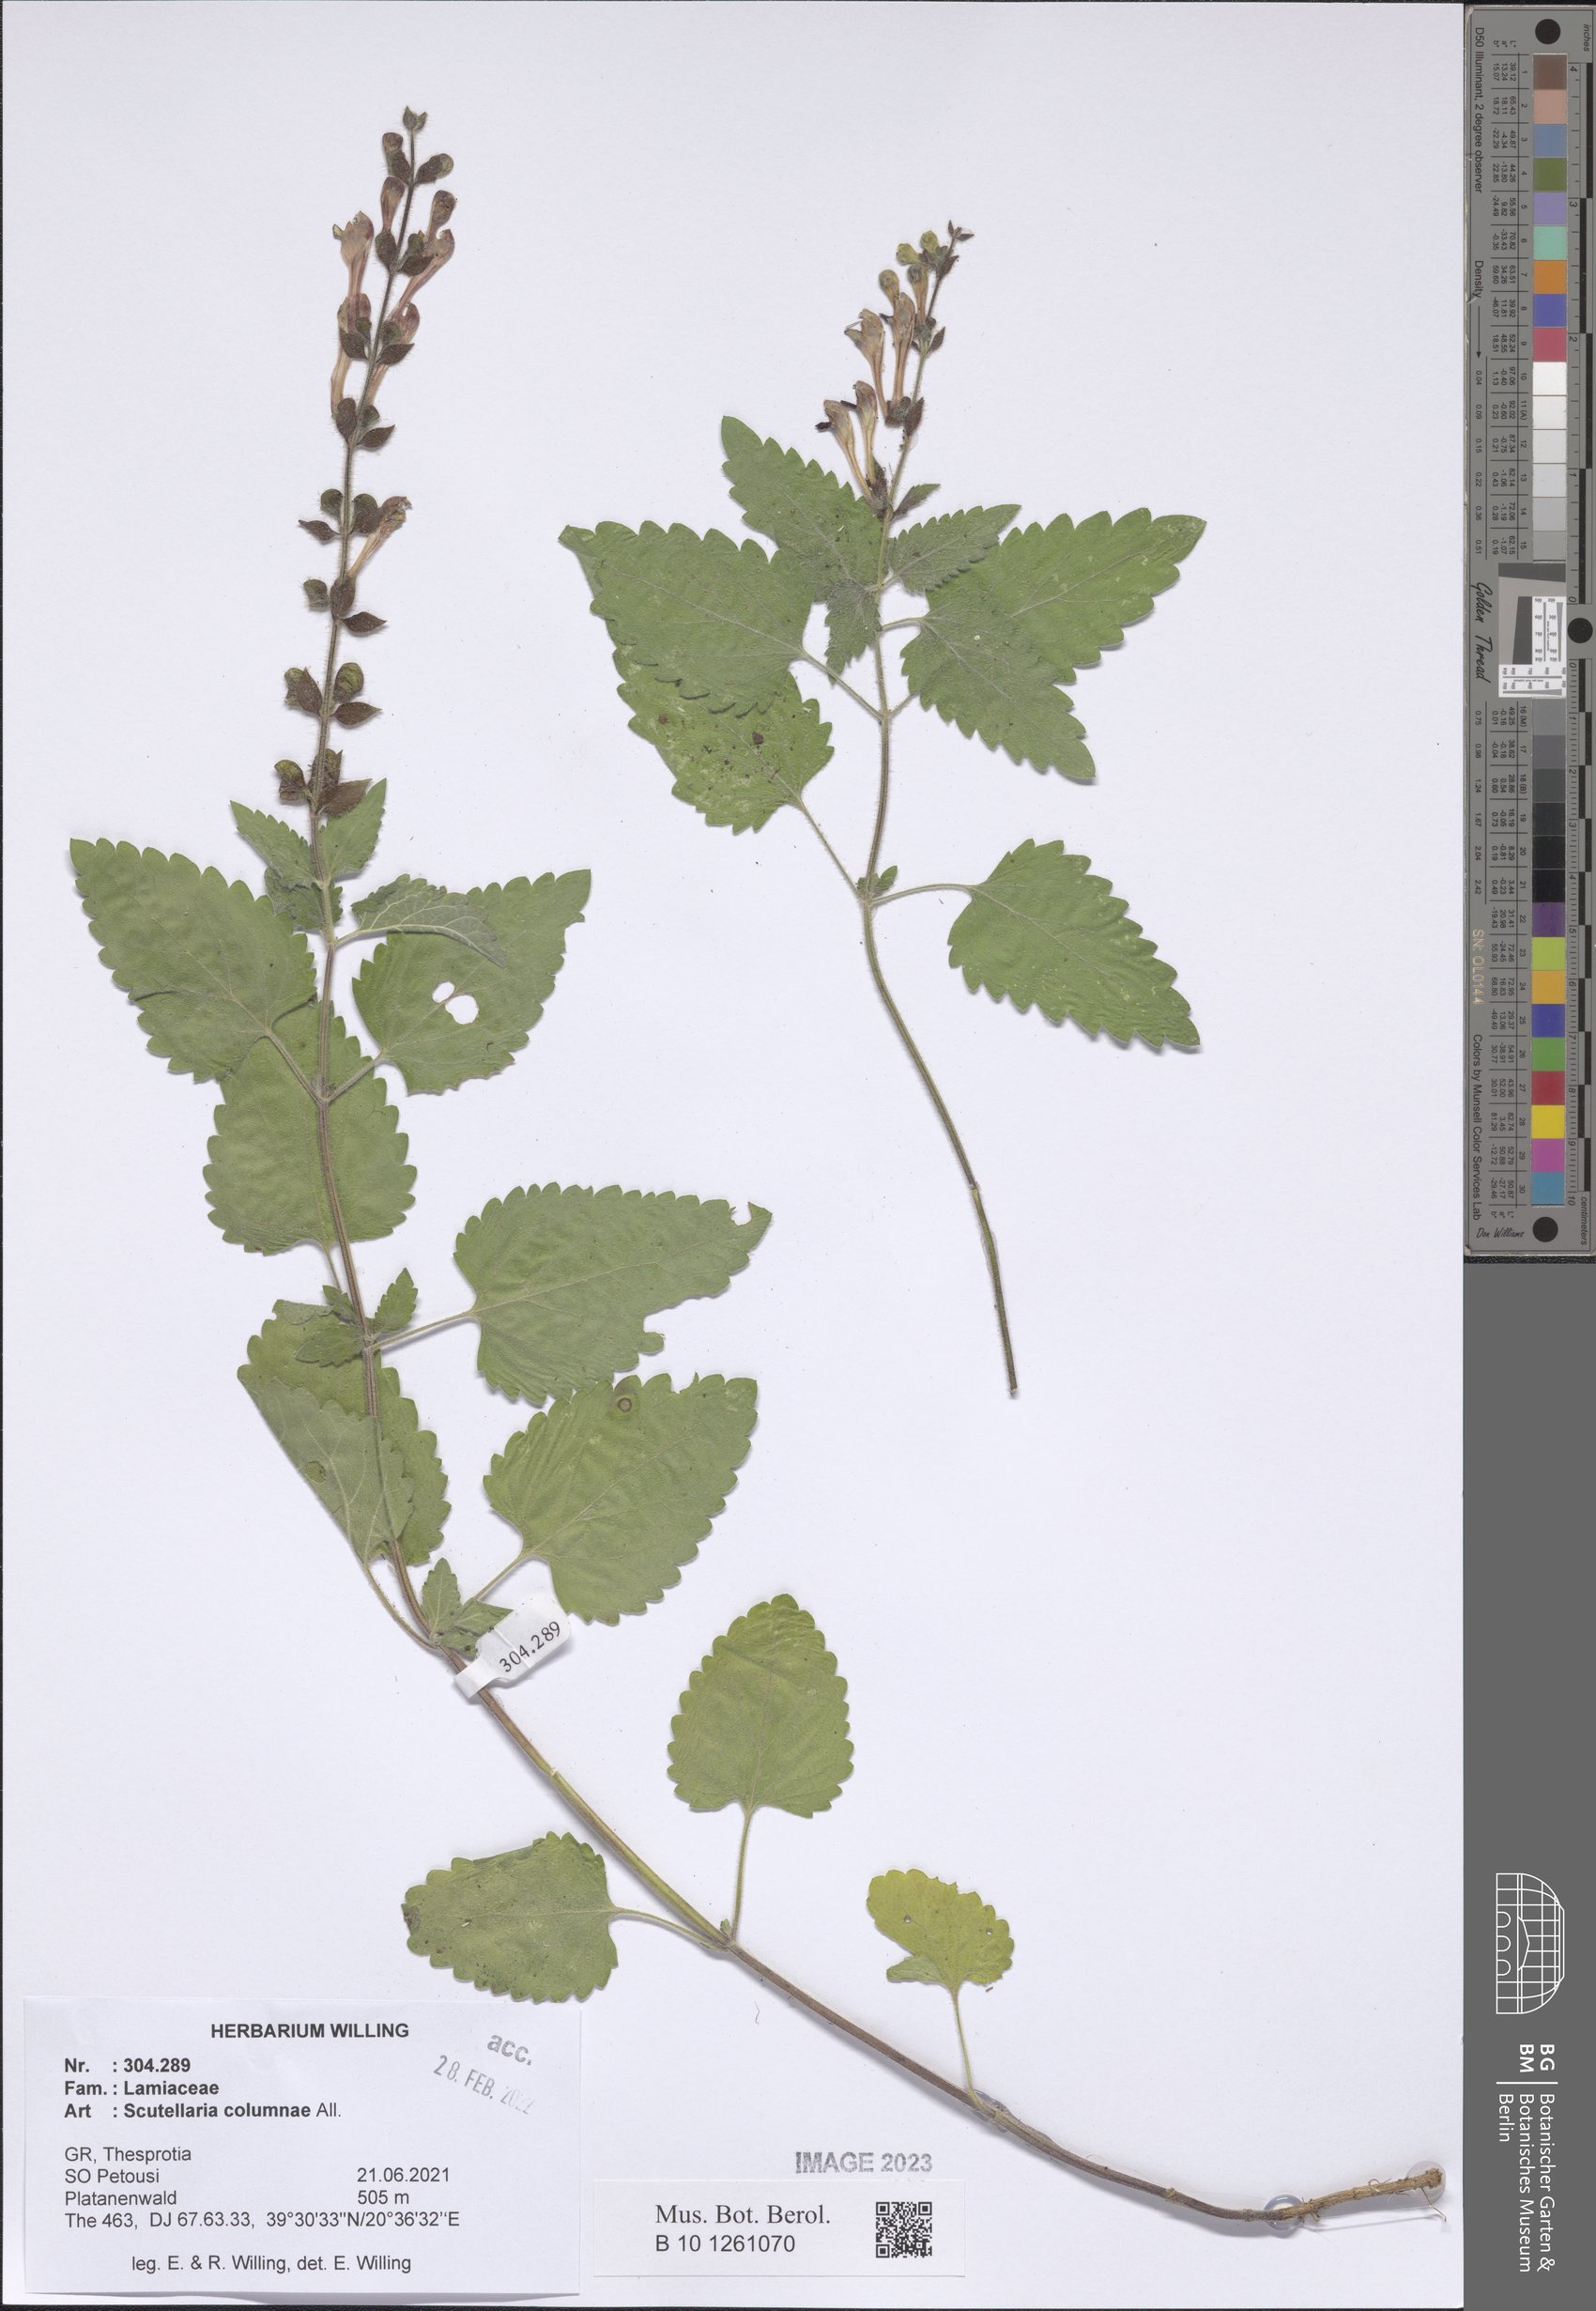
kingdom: Plantae
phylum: Tracheophyta
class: Magnoliopsida
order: Lamiales
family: Lamiaceae
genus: Scutellaria
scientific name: Scutellaria columnae
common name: Large skullcap
